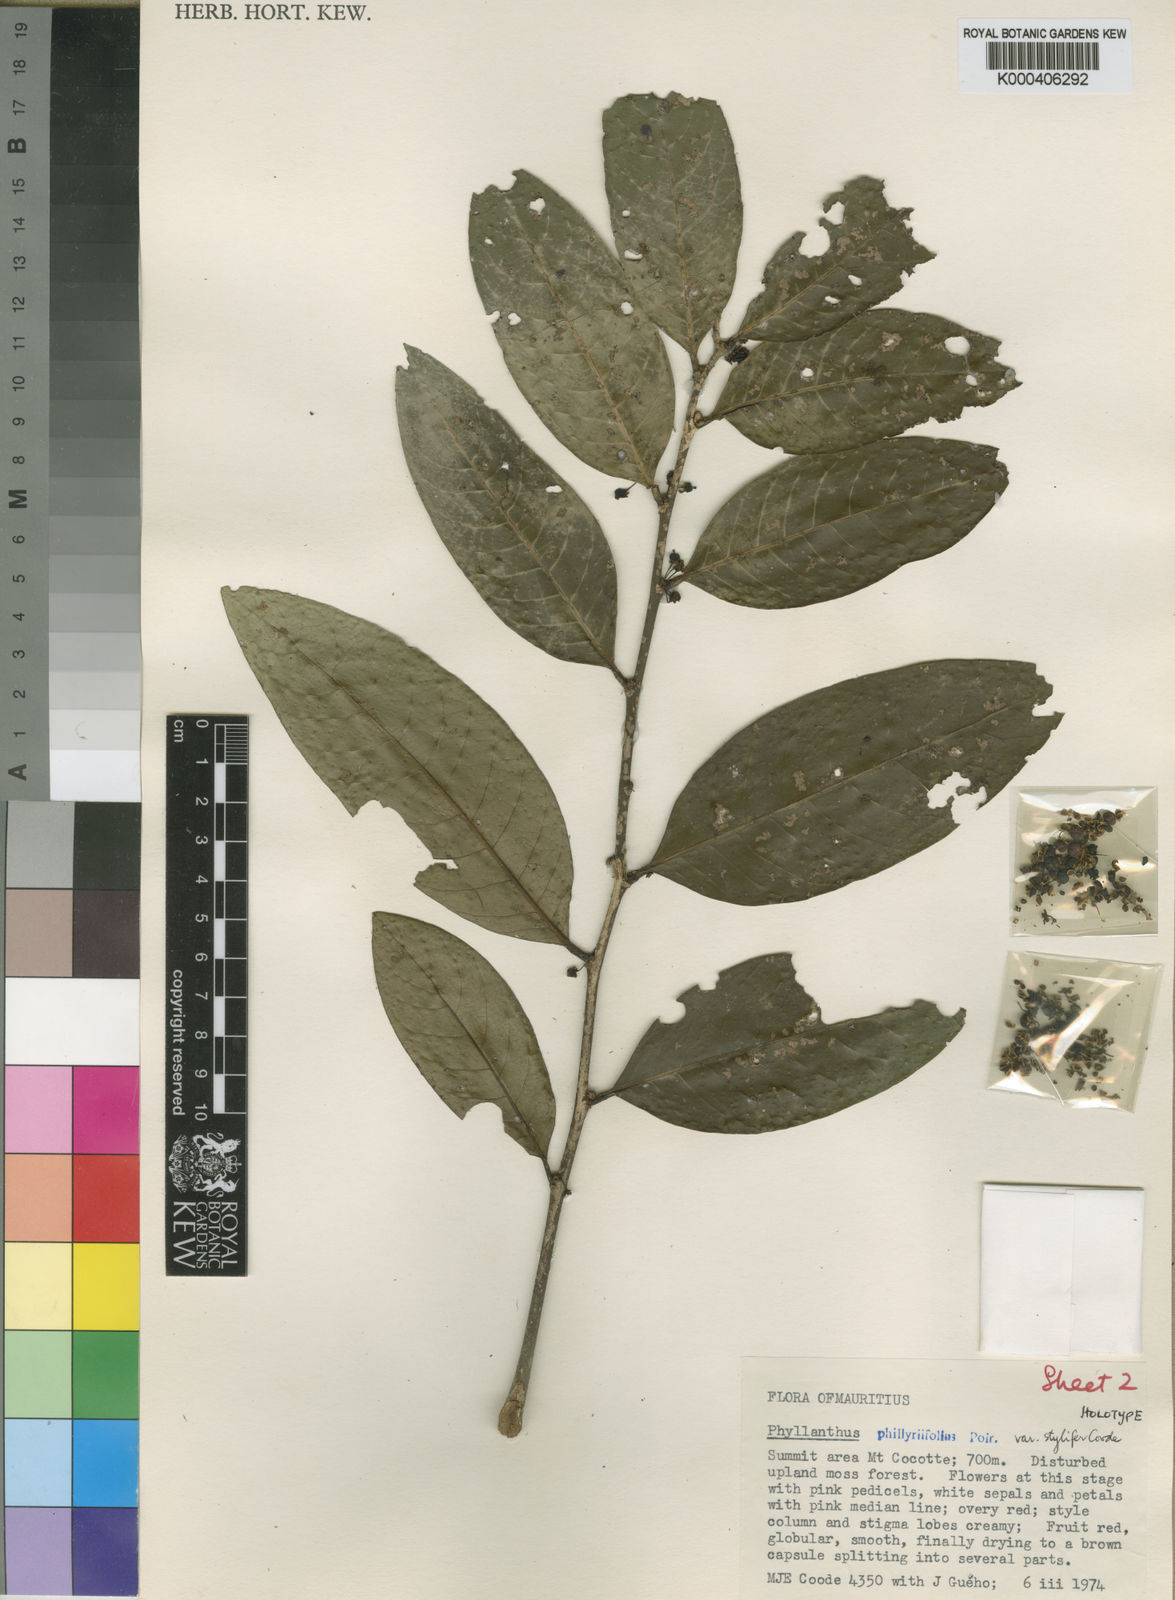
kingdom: Plantae
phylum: Tracheophyta
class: Magnoliopsida
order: Malpighiales
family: Phyllanthaceae
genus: Phyllanthus
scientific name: Phyllanthus phillyreifolius
